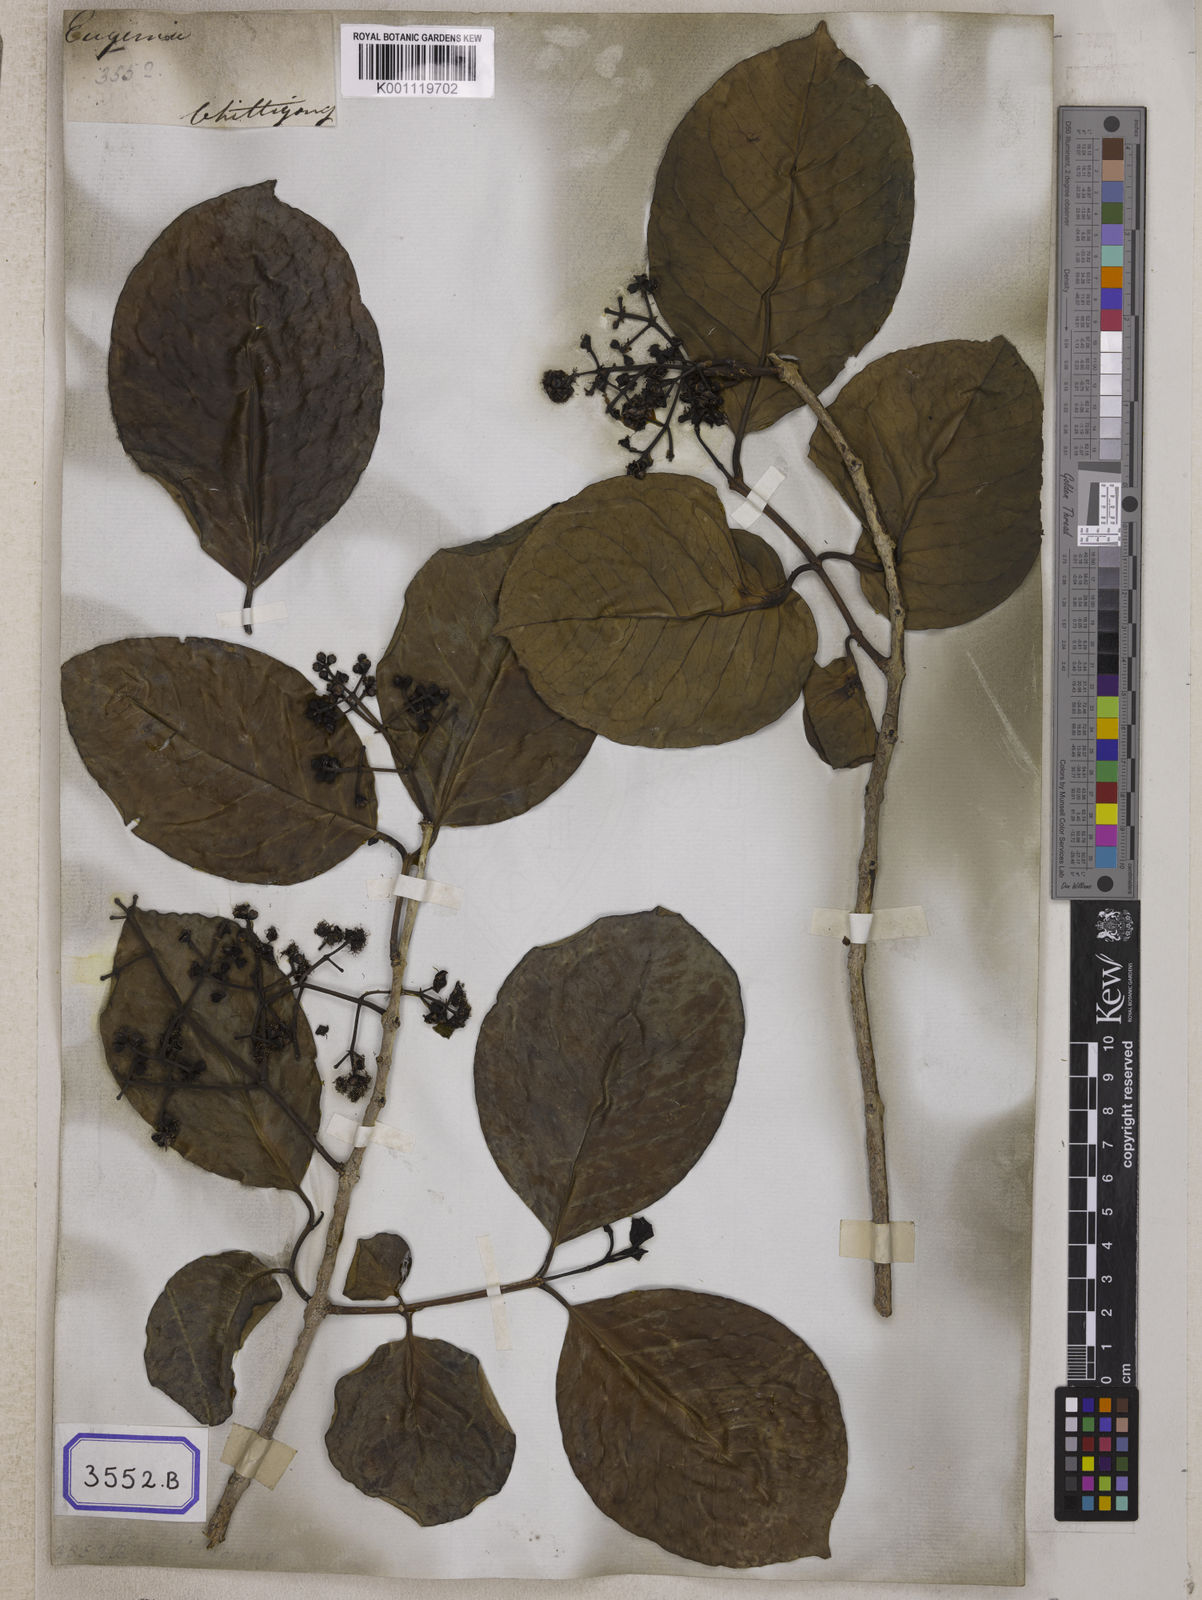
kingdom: Plantae
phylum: Tracheophyta
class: Magnoliopsida
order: Myrtales
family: Myrtaceae
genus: Syzygium
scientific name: Syzygium
